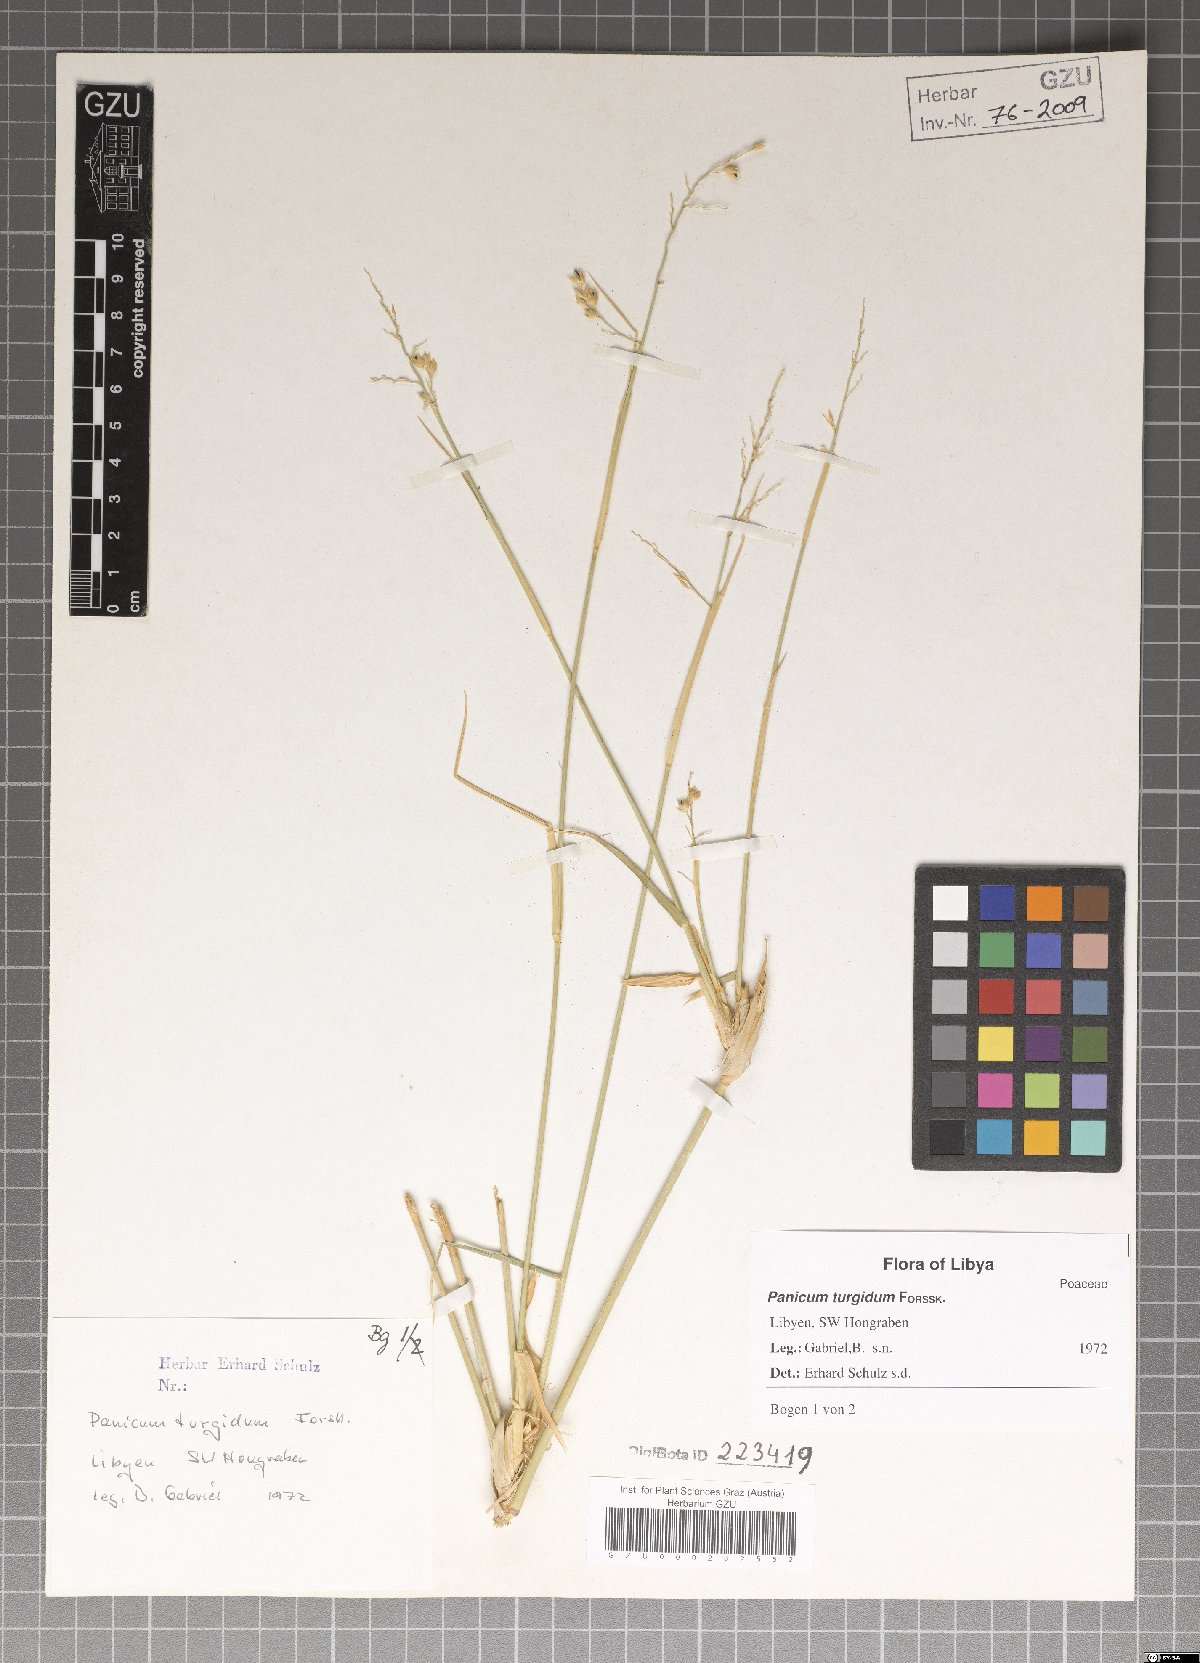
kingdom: Plantae
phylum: Tracheophyta
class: Liliopsida
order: Poales
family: Poaceae
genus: Panicum
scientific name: Panicum turgidum
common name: Desert grass
